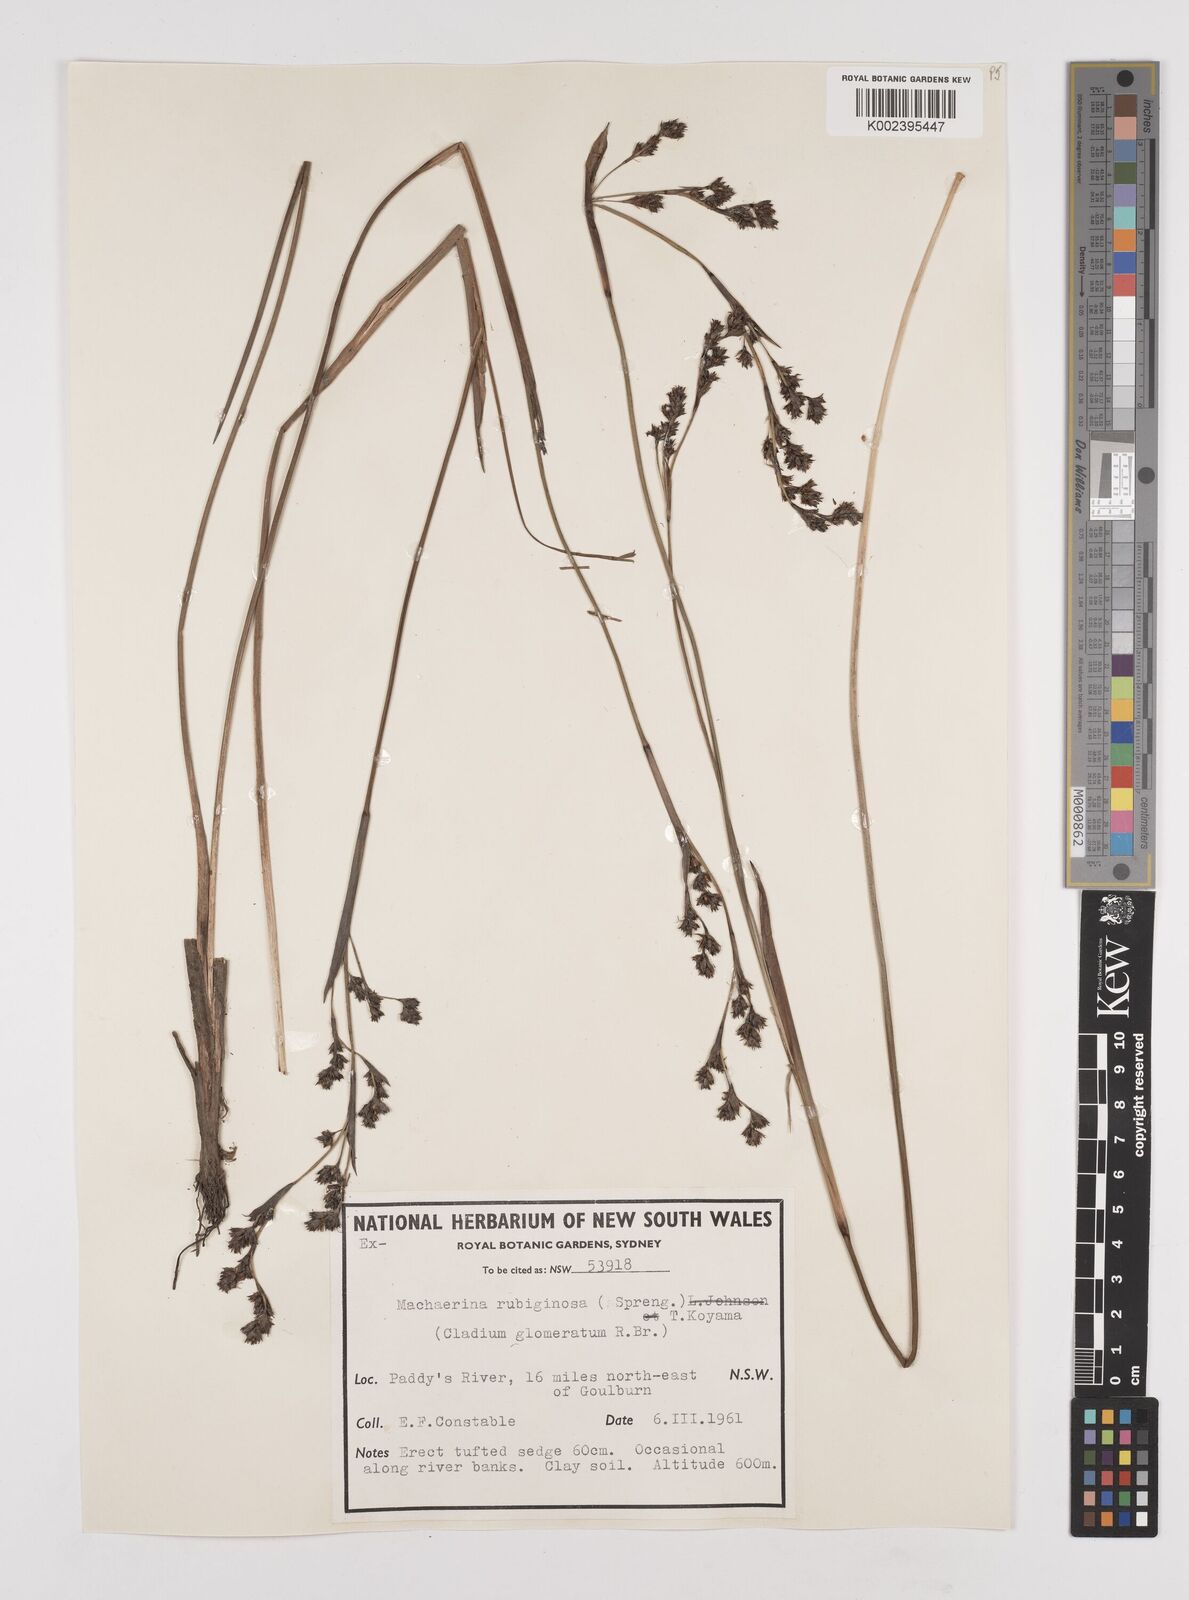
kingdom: Plantae
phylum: Tracheophyta
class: Liliopsida
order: Poales
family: Cyperaceae
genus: Machaerina
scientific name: Machaerina
